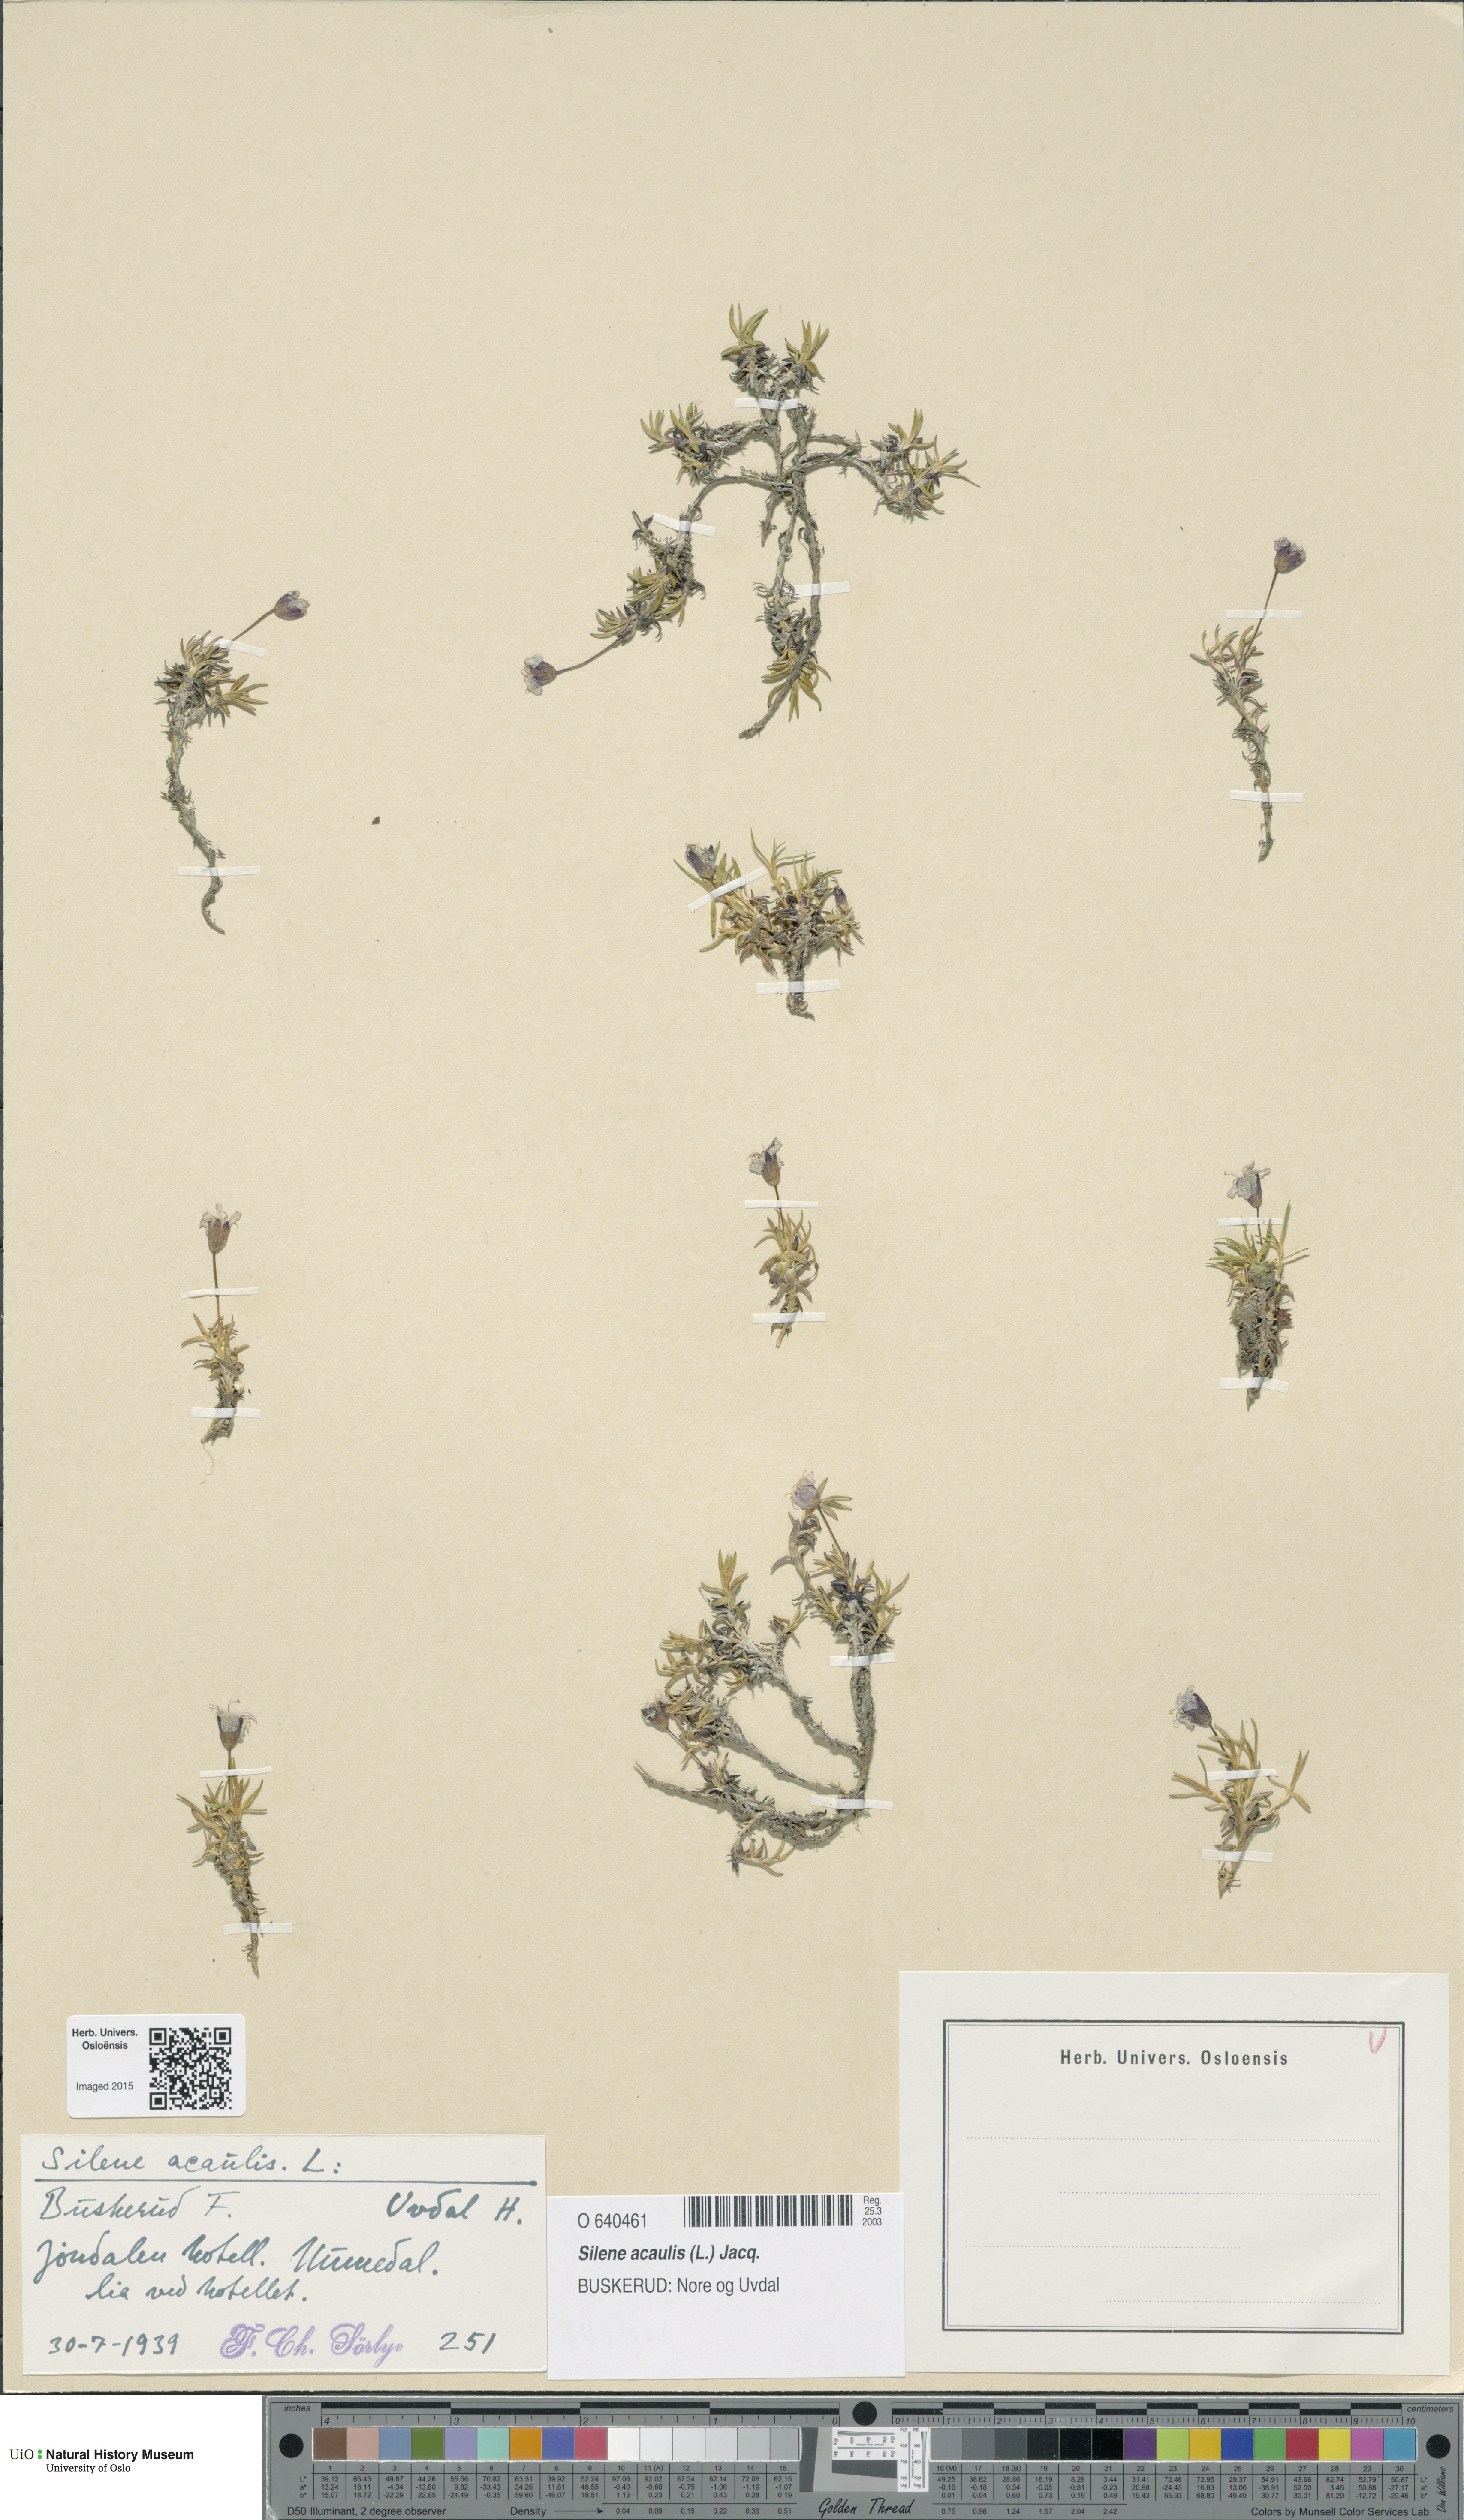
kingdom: Plantae
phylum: Tracheophyta
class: Magnoliopsida
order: Caryophyllales
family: Caryophyllaceae
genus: Silene
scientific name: Silene acaulis
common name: Moss campion
